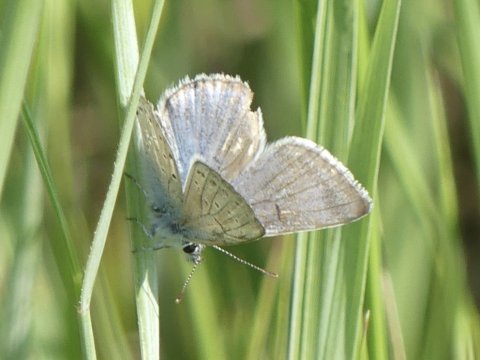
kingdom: Animalia
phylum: Arthropoda
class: Insecta
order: Lepidoptera
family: Lycaenidae
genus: Plebejus
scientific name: Plebejus saepiolus
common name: Greenish Blue
